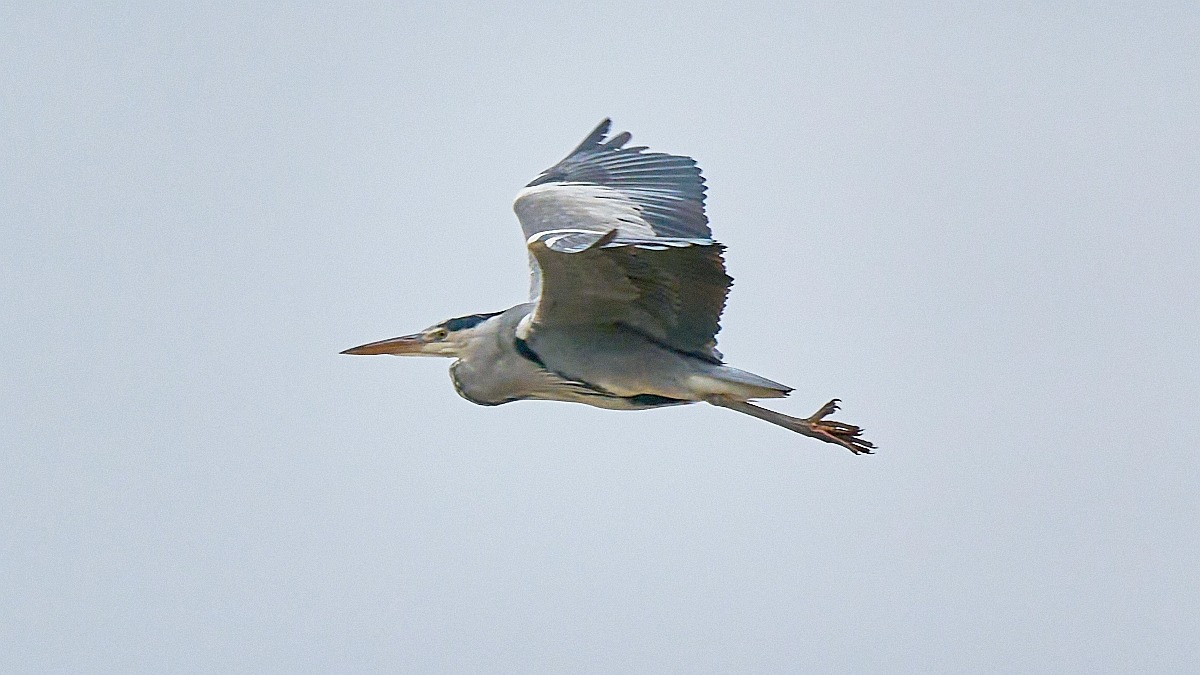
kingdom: Animalia
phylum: Chordata
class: Aves
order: Pelecaniformes
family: Ardeidae
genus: Ardea
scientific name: Ardea cinerea
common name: Fiskehejre
